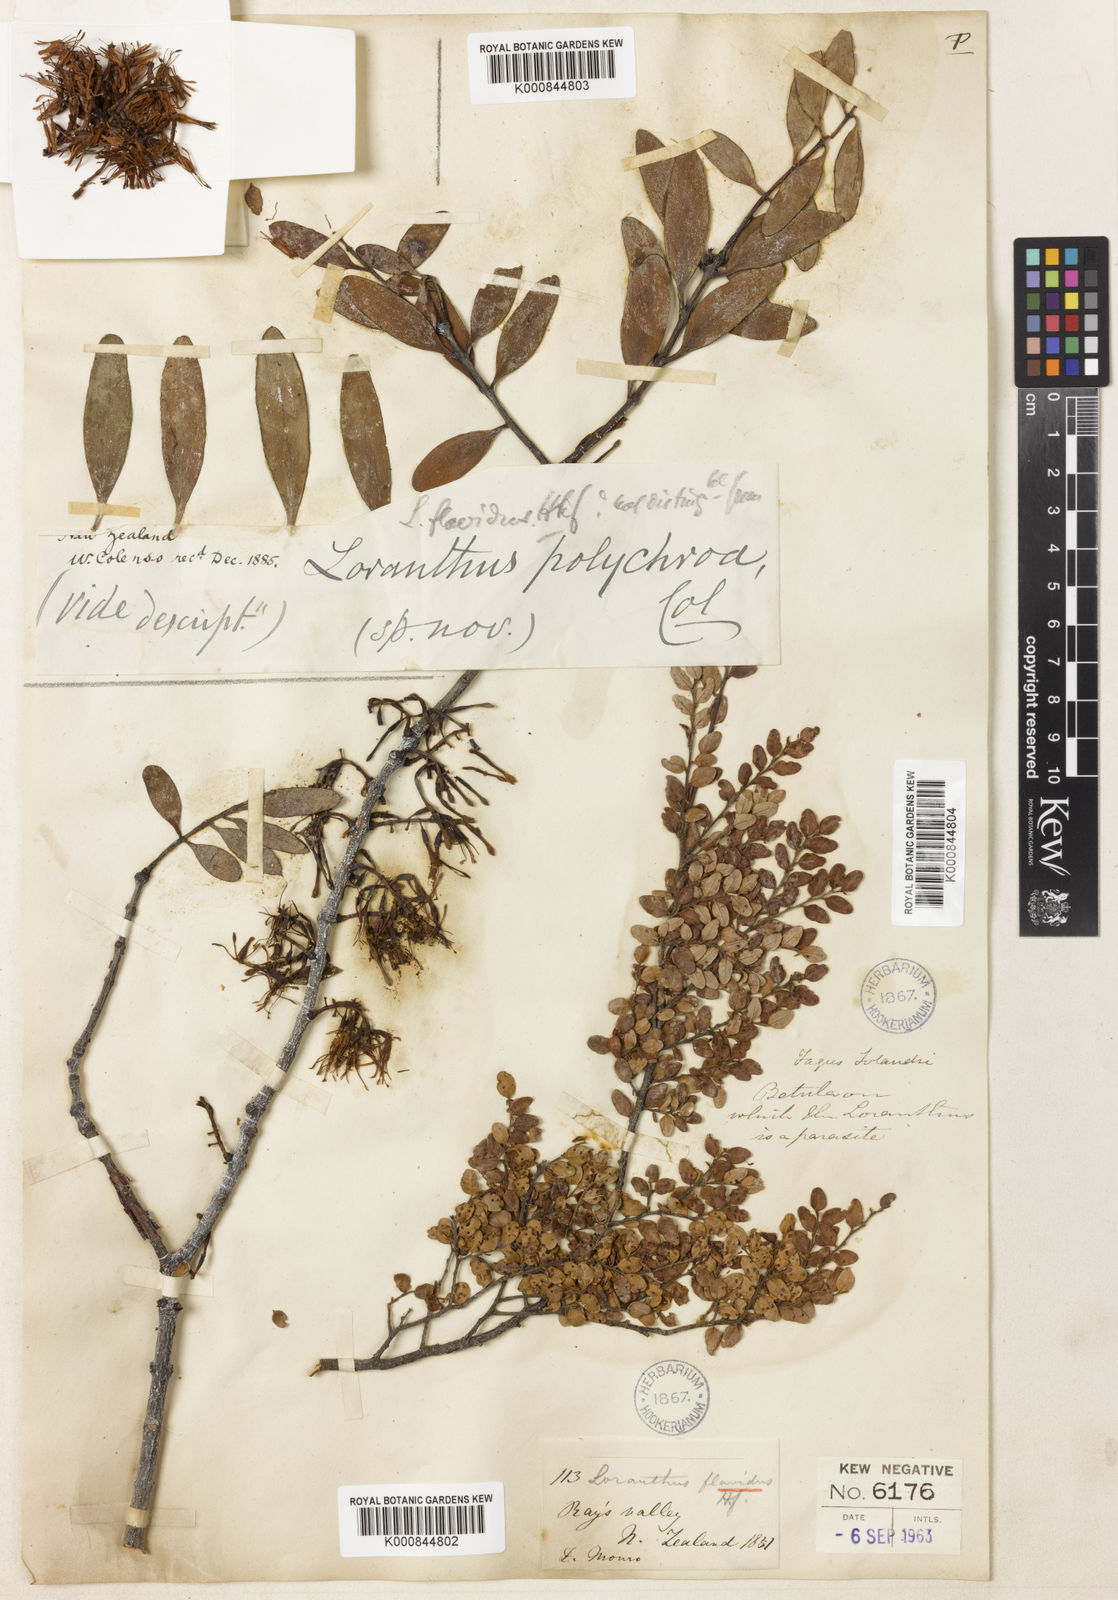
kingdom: Plantae
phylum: Tracheophyta
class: Magnoliopsida
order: Santalales
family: Loranthaceae
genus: Alepis
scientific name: Alepis flavida
